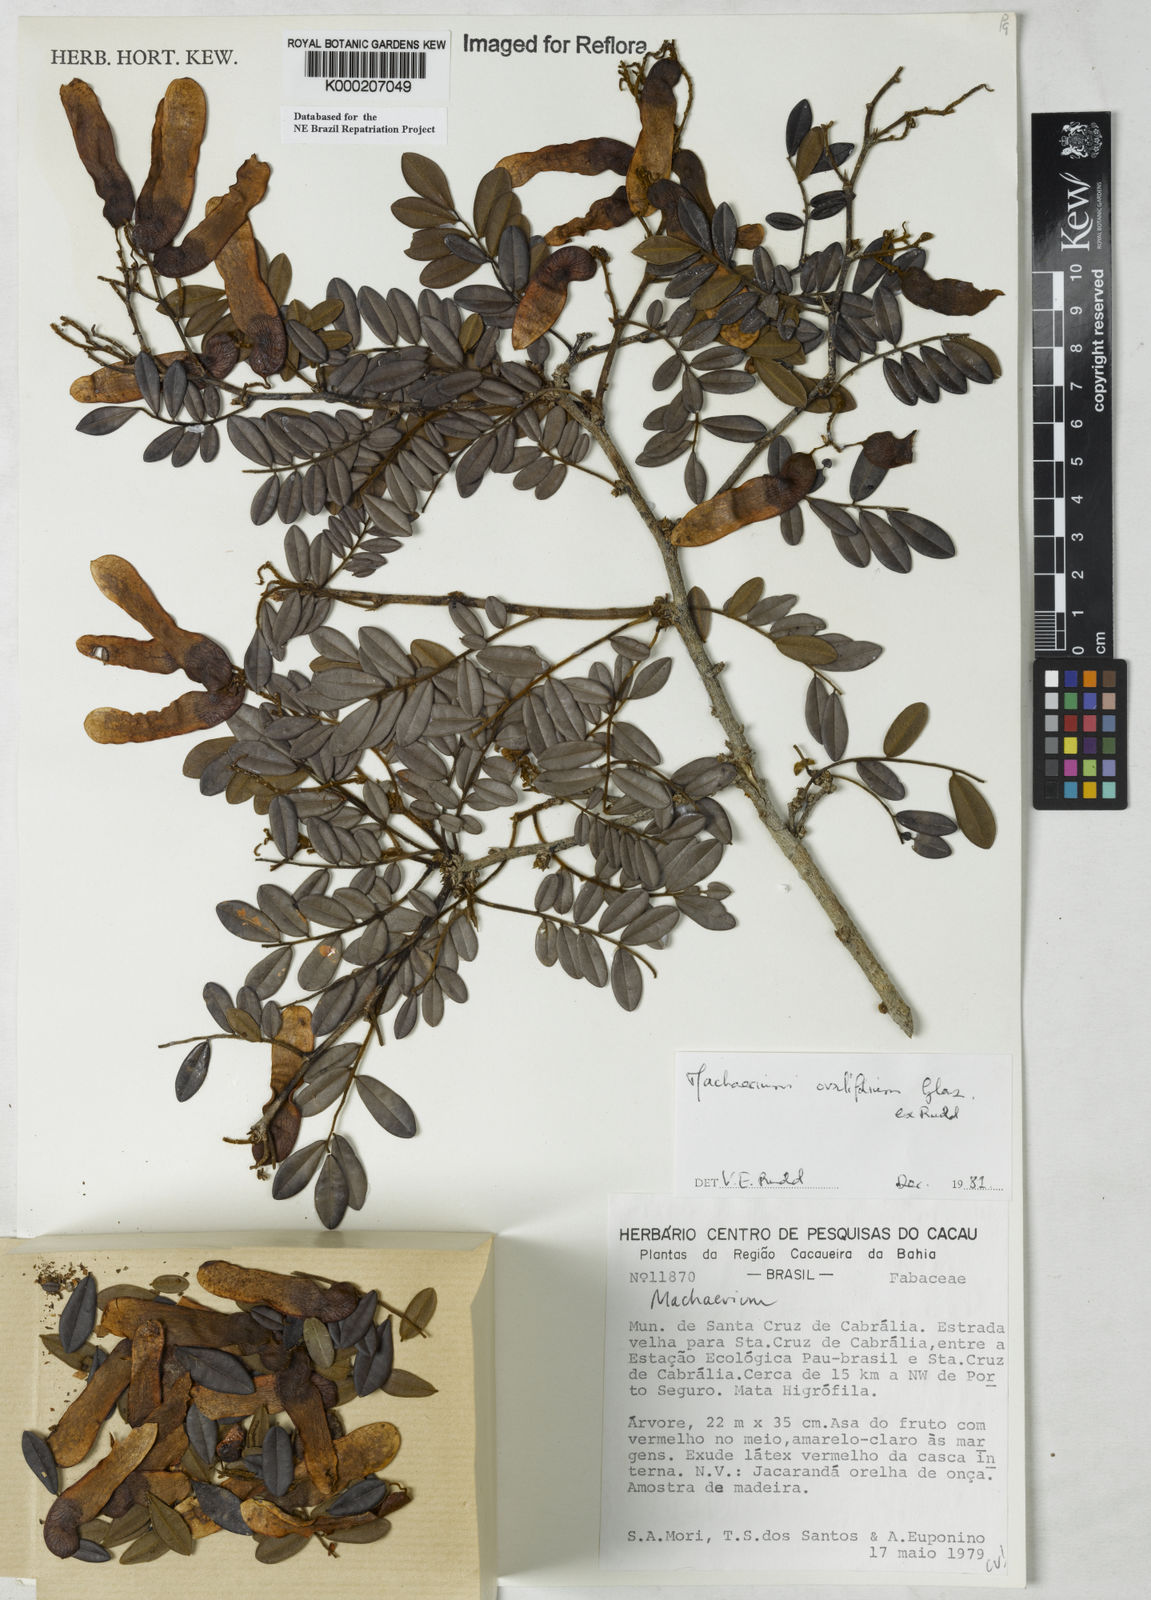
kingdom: Plantae
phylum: Tracheophyta
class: Magnoliopsida
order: Fabales
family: Fabaceae
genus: Machaerium
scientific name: Machaerium ovalifolium
